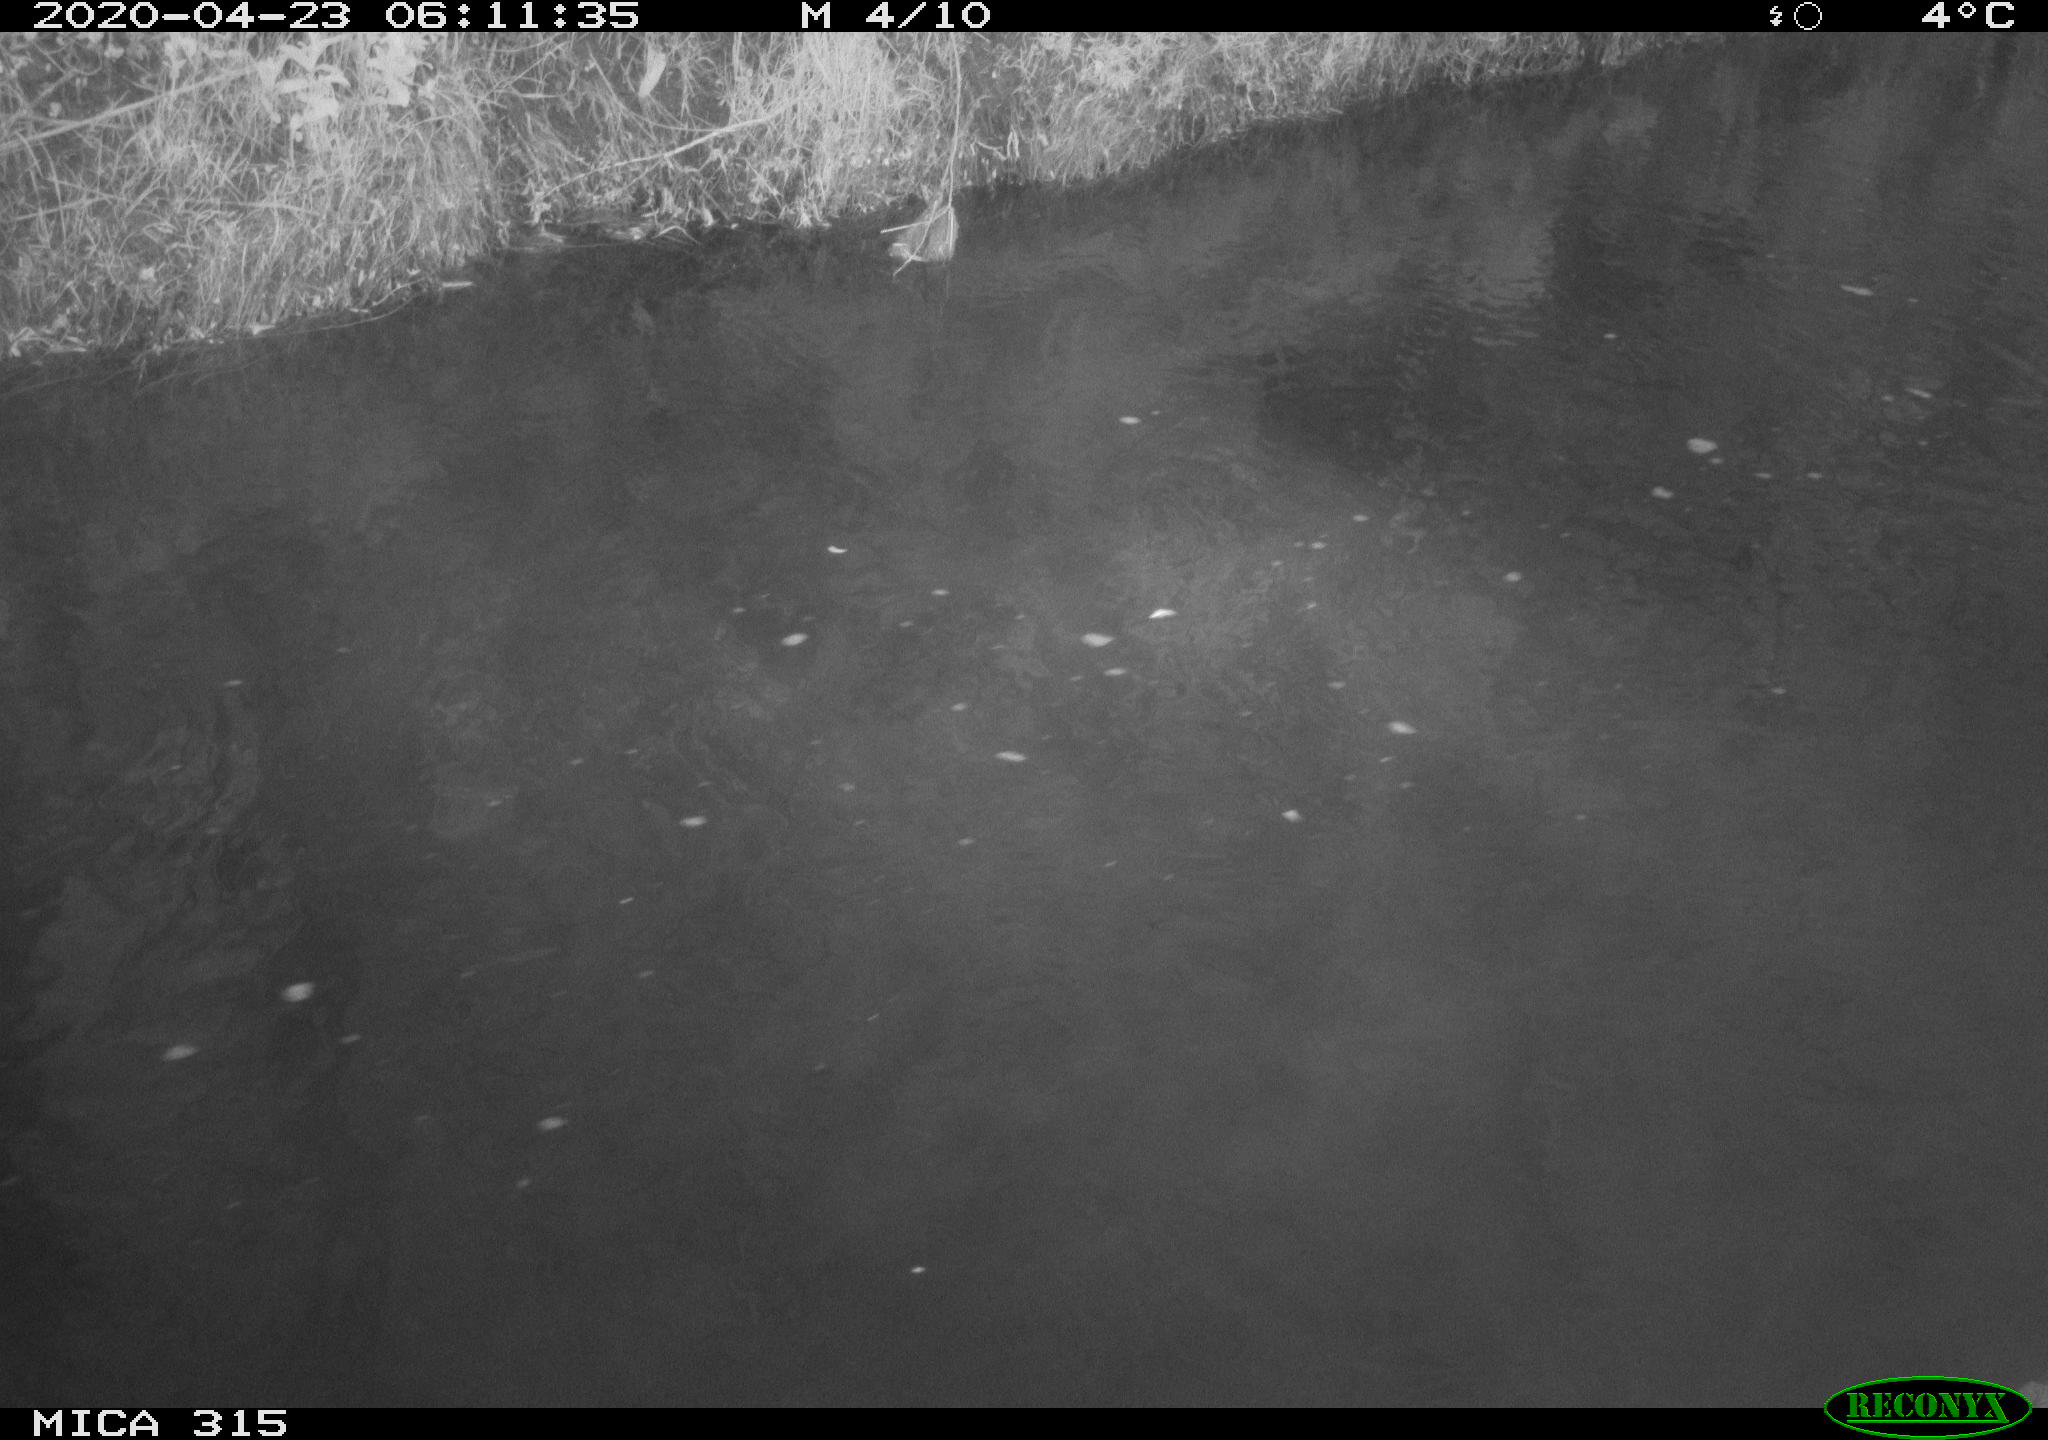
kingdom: Animalia
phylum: Chordata
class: Aves
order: Anseriformes
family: Anatidae
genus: Anas
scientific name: Anas platyrhynchos
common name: Mallard
